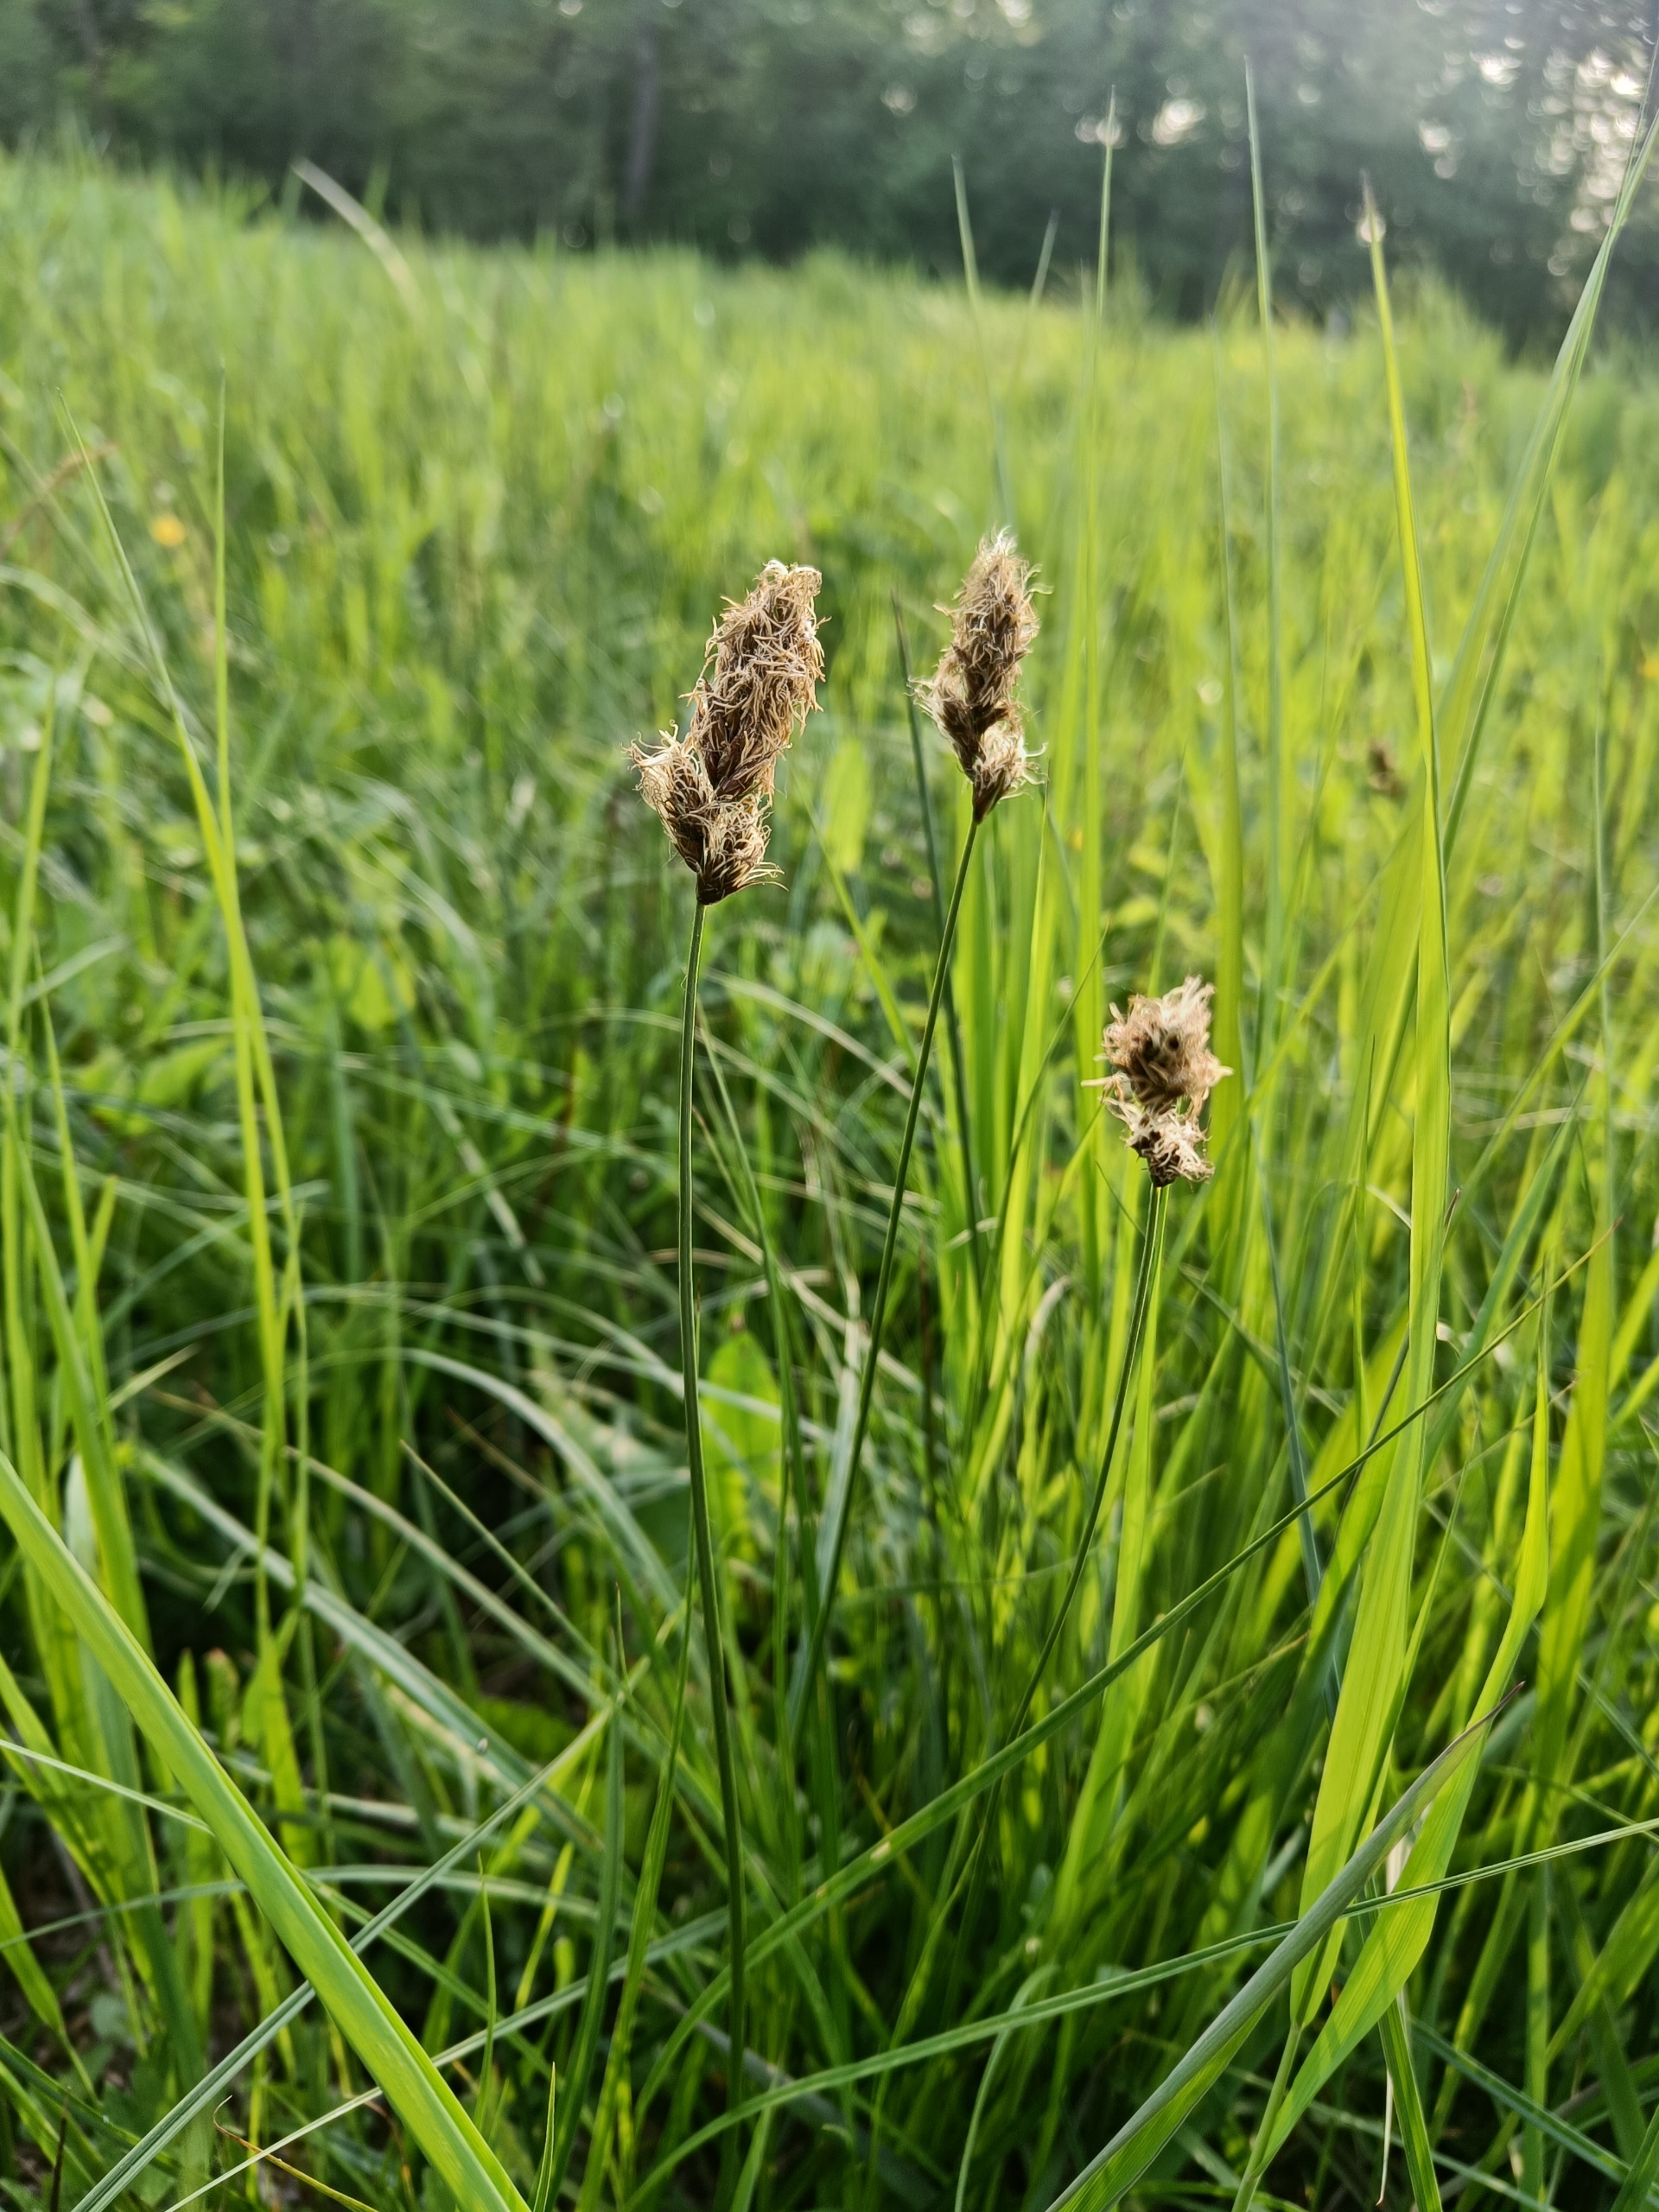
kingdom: Plantae
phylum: Tracheophyta
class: Liliopsida
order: Poales
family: Cyperaceae
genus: Carex
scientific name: Carex disticha
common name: Toradet star
